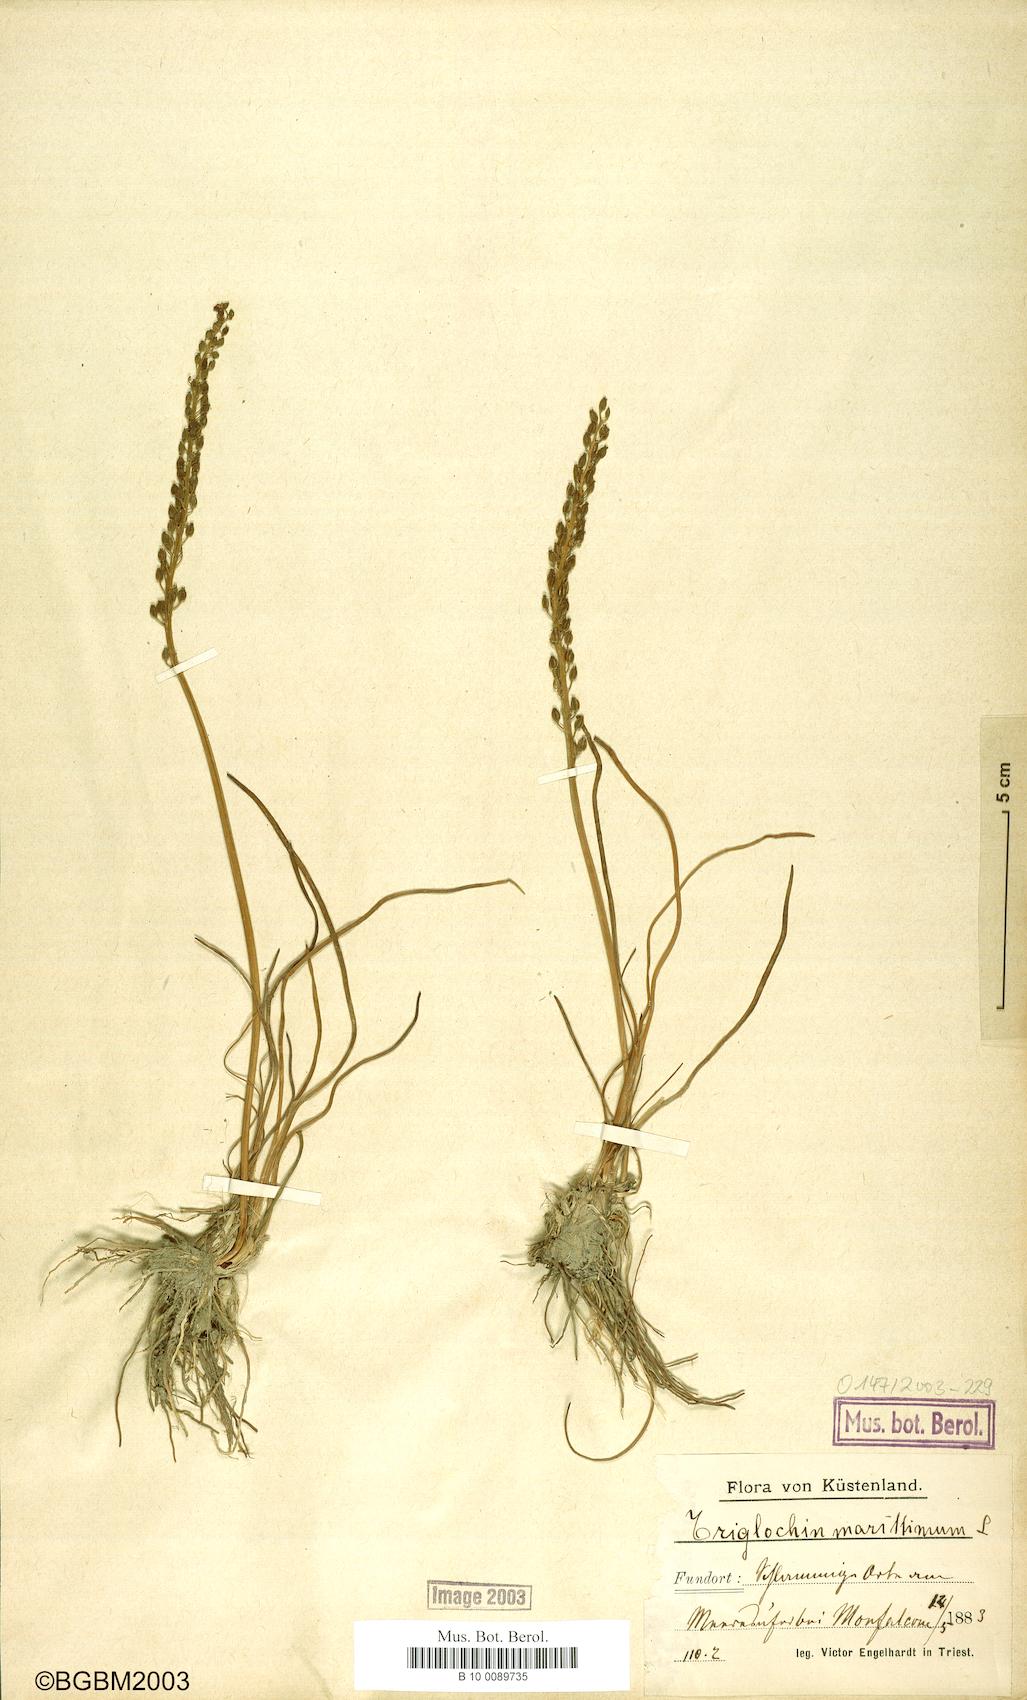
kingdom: Plantae
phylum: Tracheophyta
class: Liliopsida
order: Alismatales
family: Juncaginaceae
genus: Triglochin
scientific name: Triglochin maritima
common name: Sea arrowgrass
